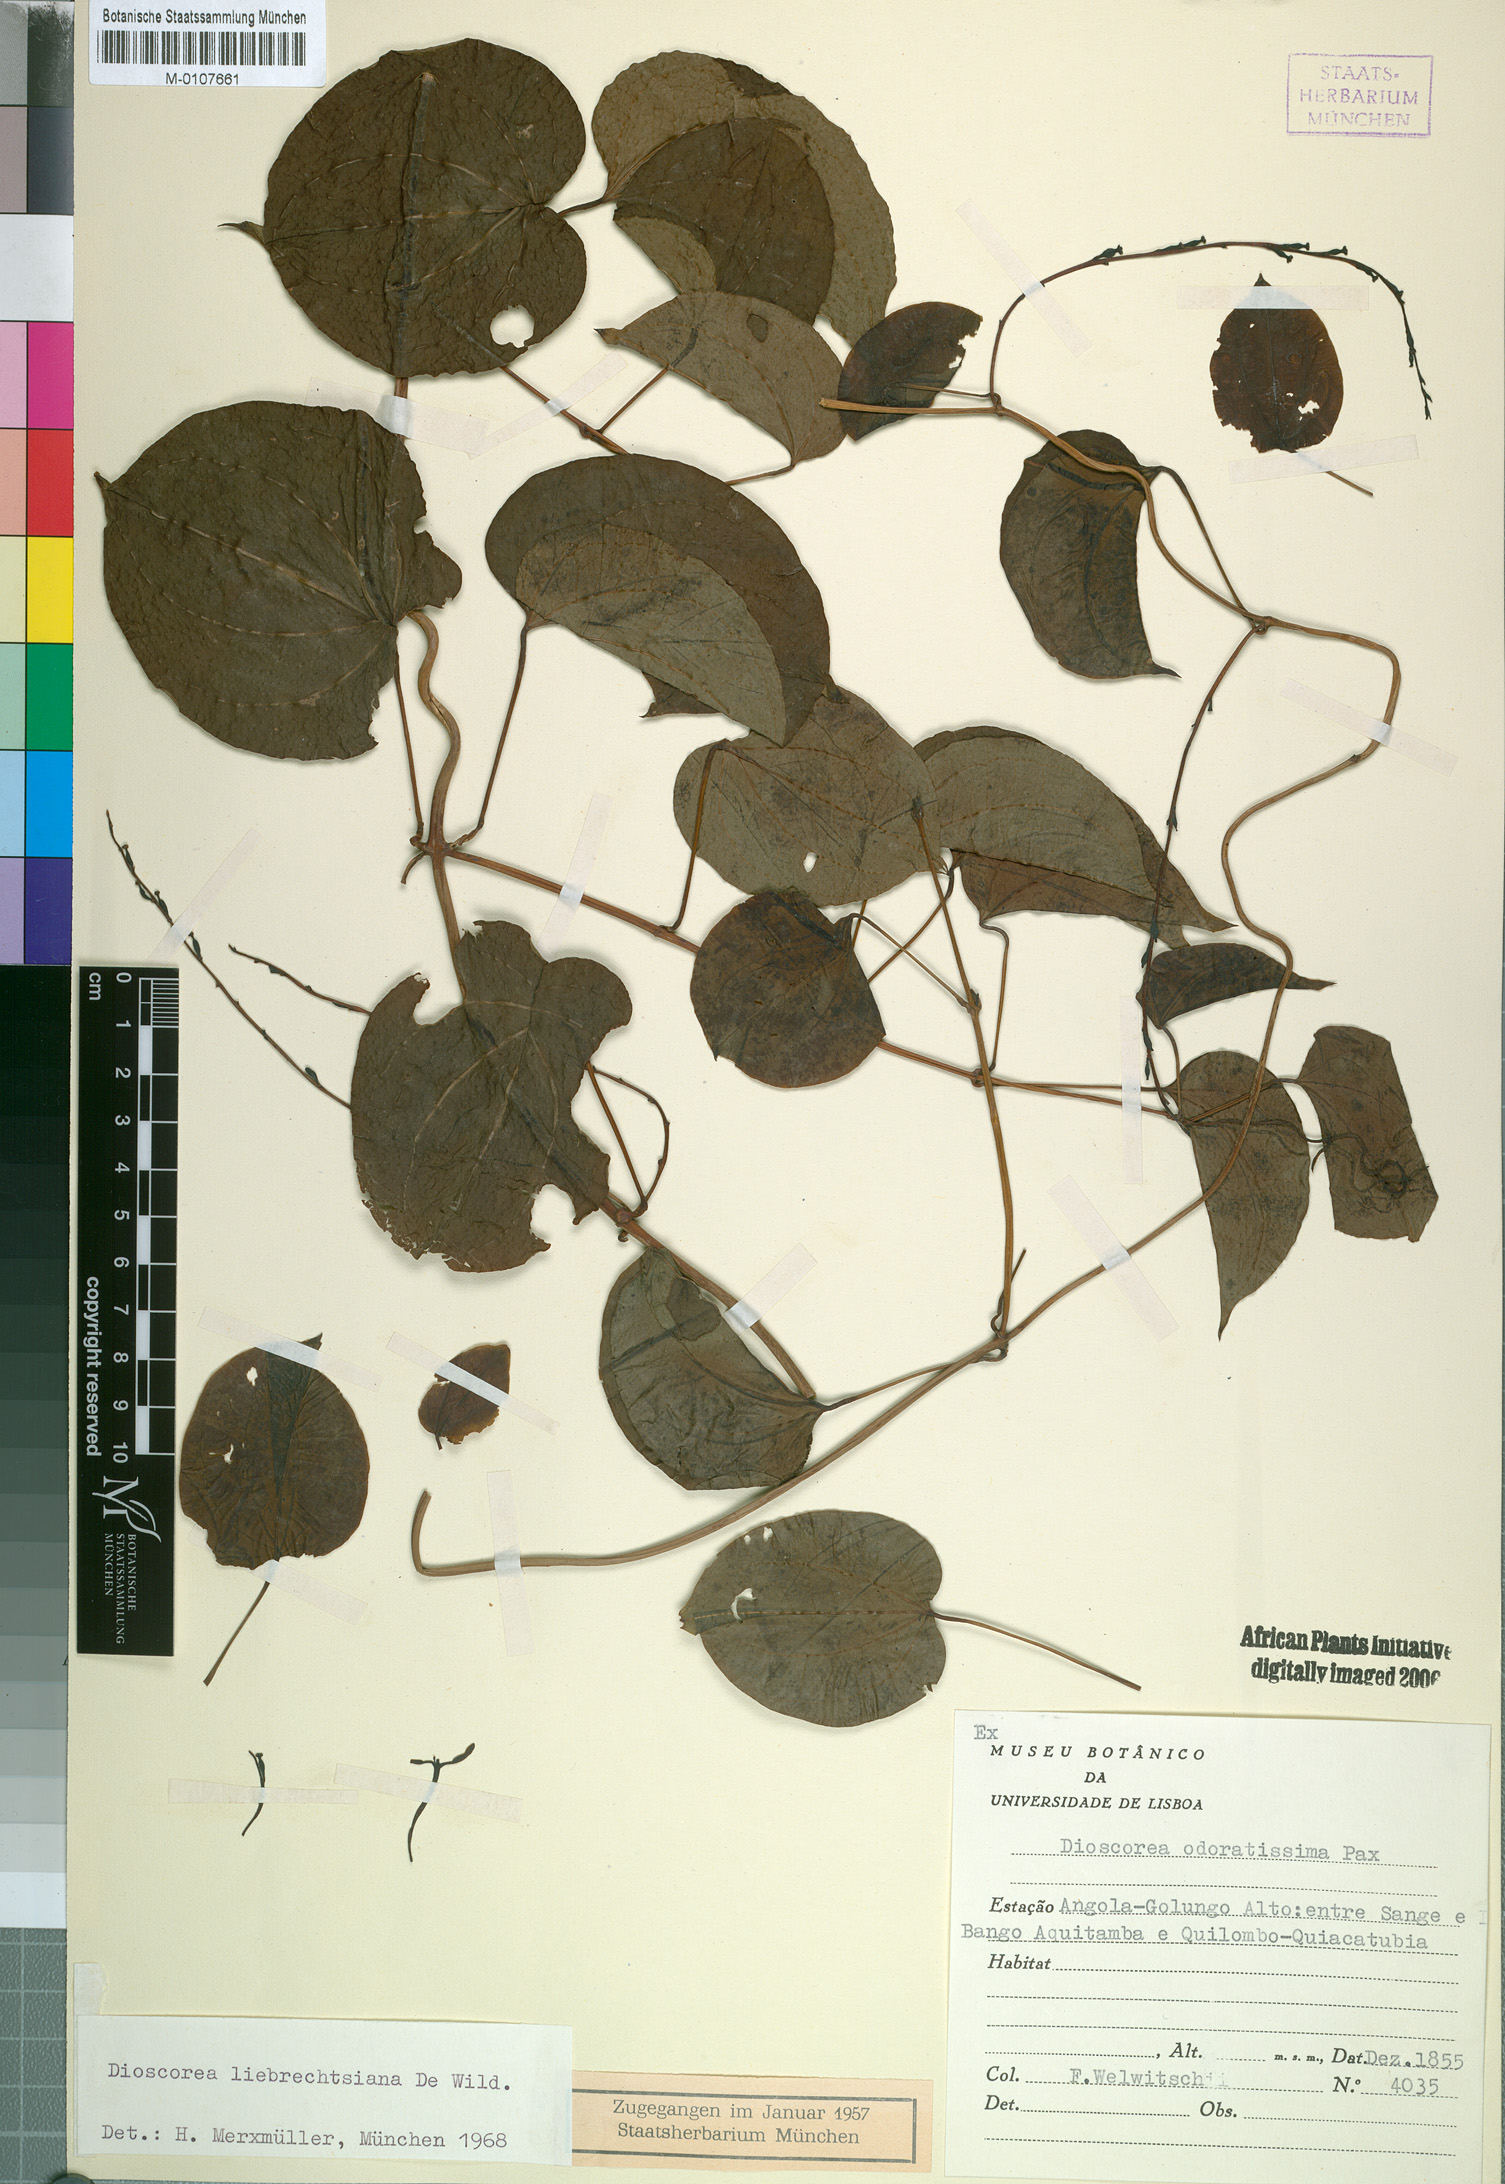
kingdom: Plantae
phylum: Tracheophyta
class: Liliopsida
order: Dioscoreales
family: Dioscoreaceae
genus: Dioscorea
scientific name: Dioscorea praehensilis
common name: Bush yam
